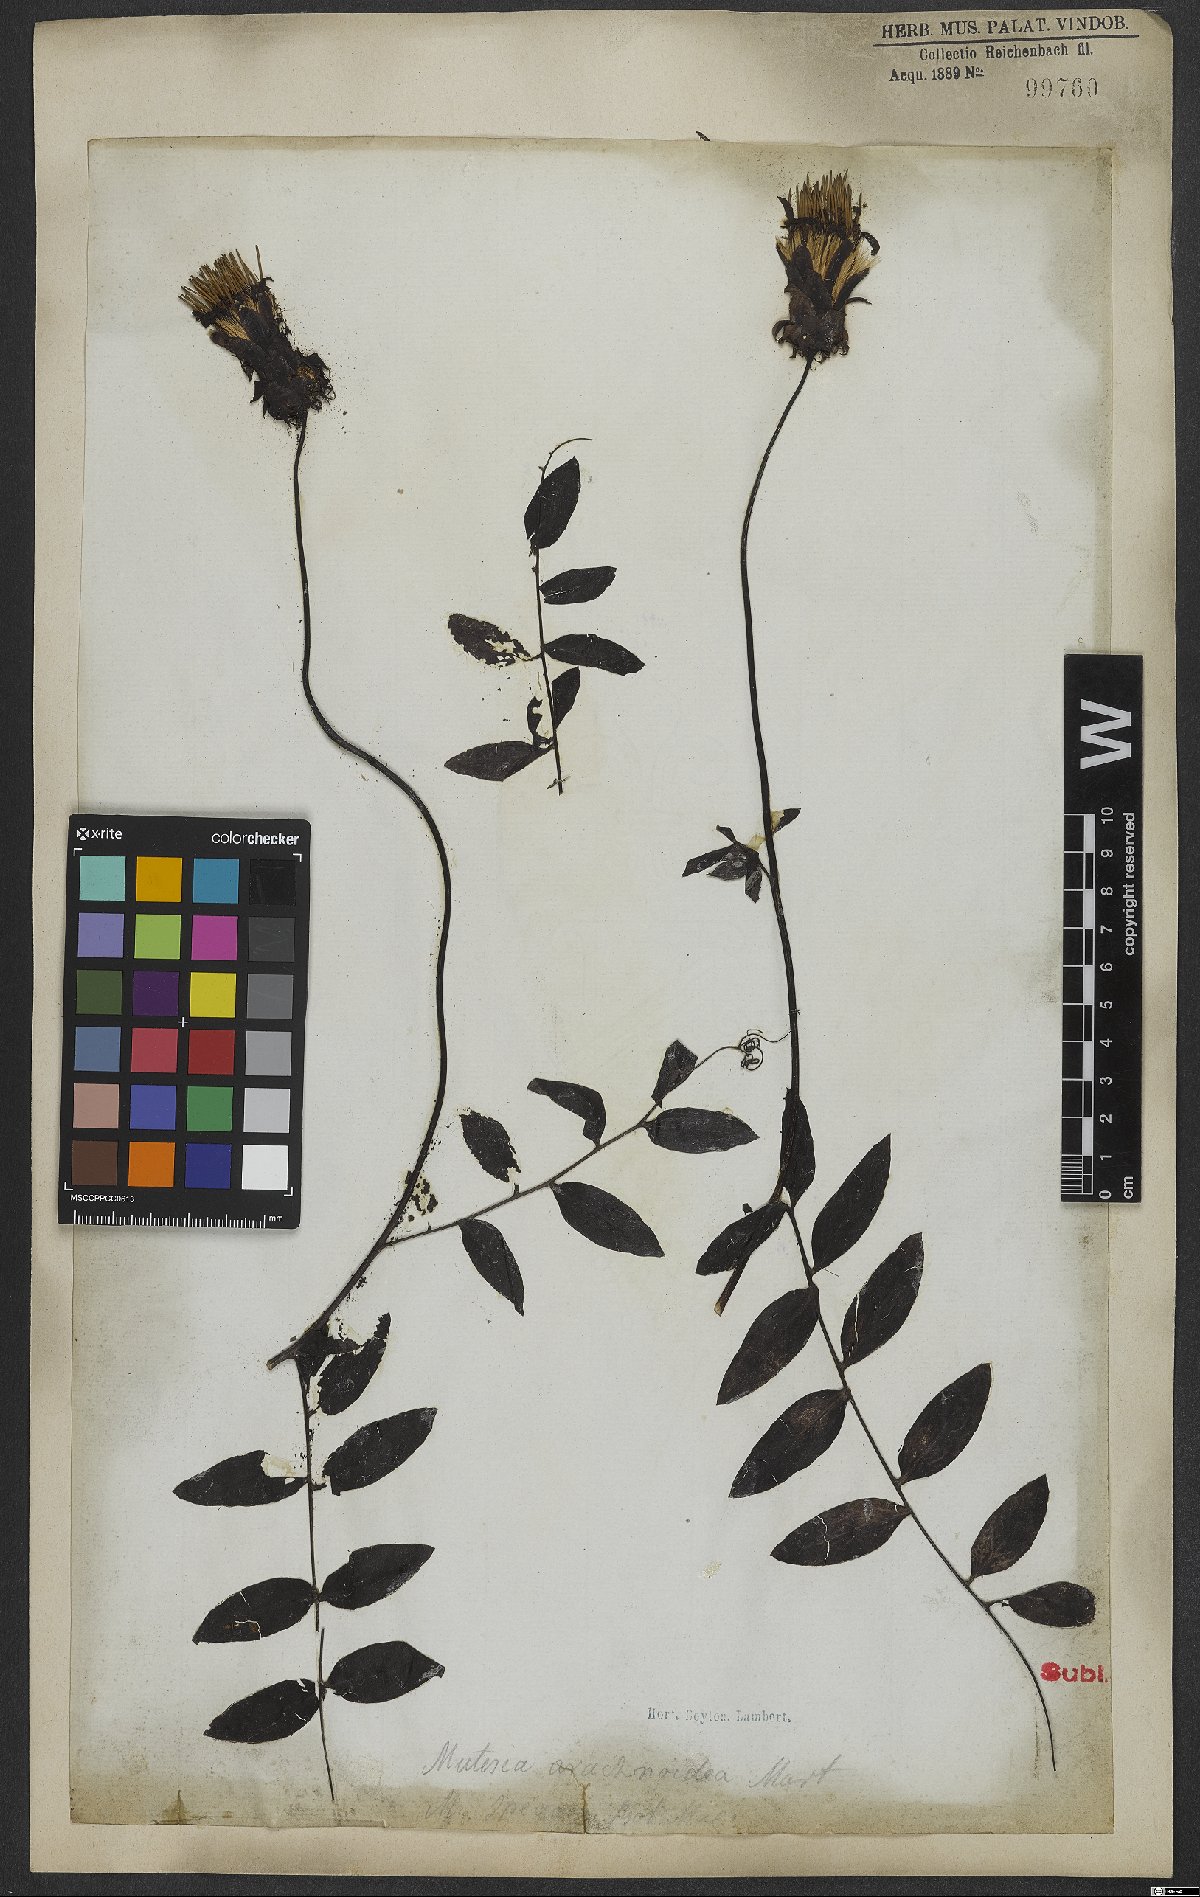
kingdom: Plantae
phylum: Tracheophyta
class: Magnoliopsida
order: Asterales
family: Asteraceae
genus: Mutisia
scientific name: Mutisia speciosa
